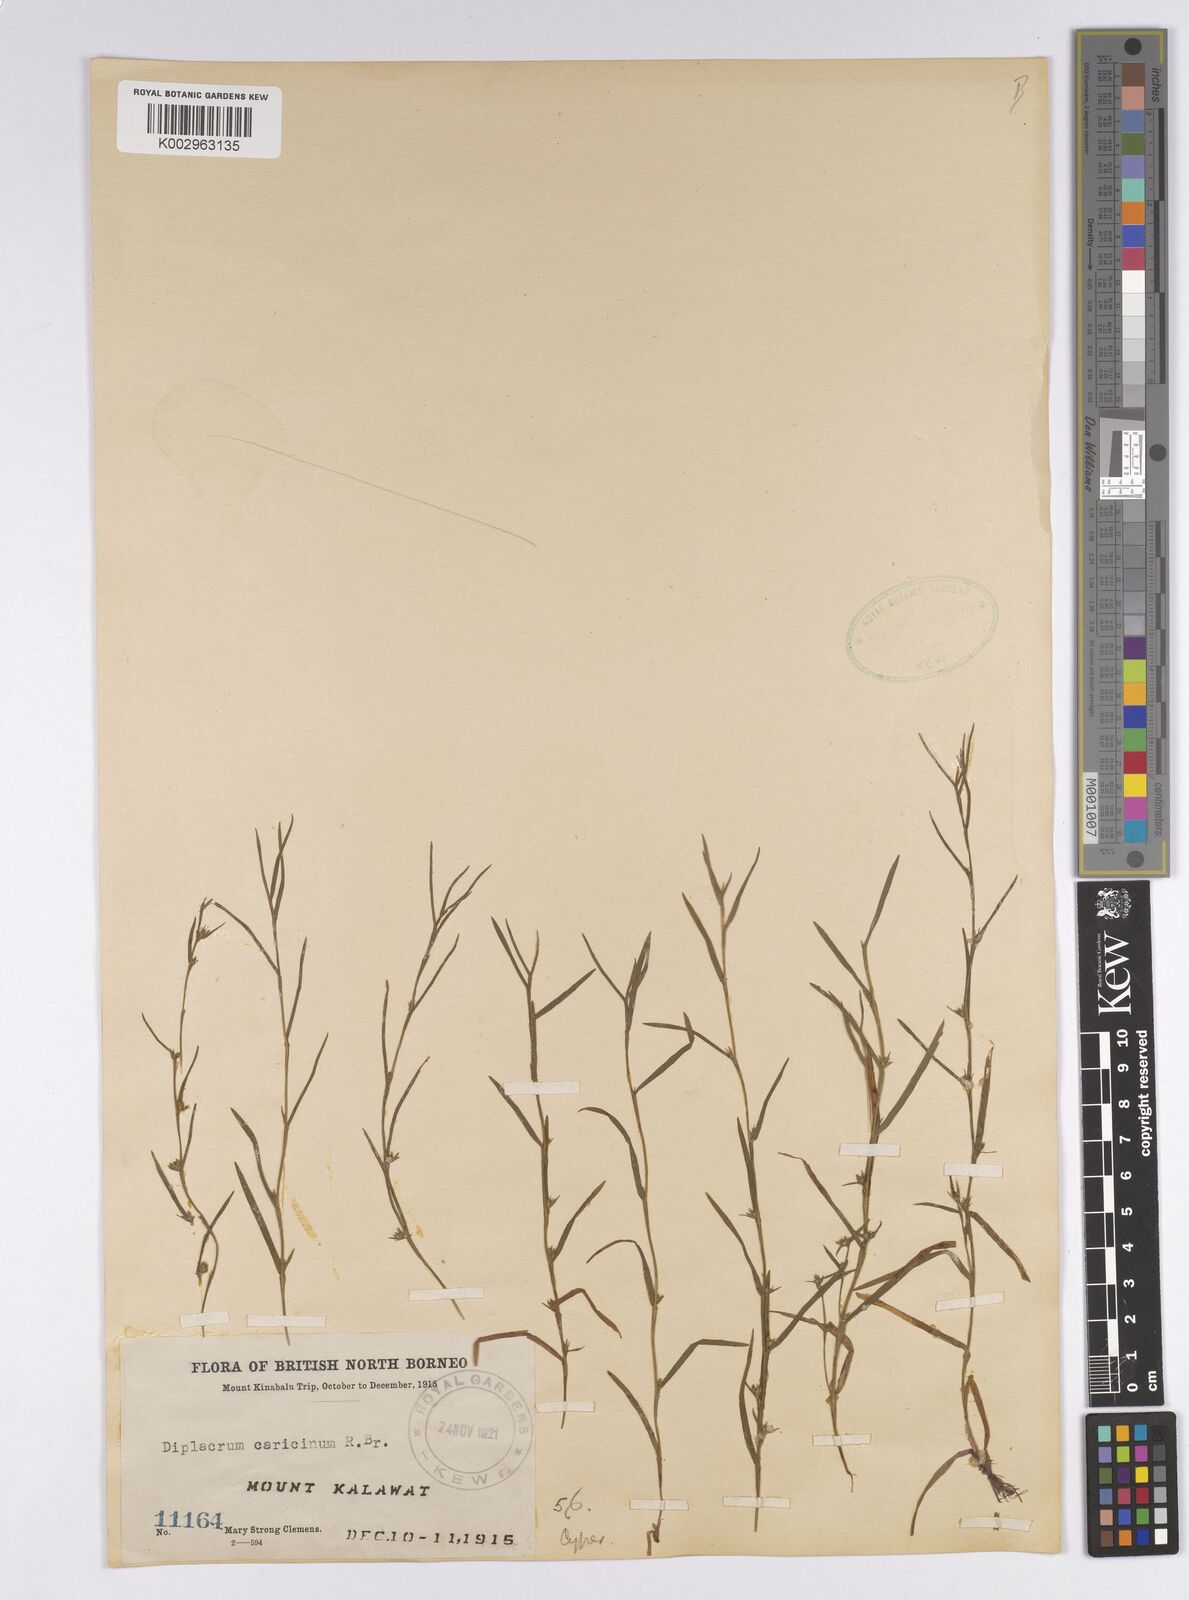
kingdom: Plantae
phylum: Tracheophyta
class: Liliopsida
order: Poales
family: Cyperaceae
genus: Diplacrum
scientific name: Diplacrum caricinum
